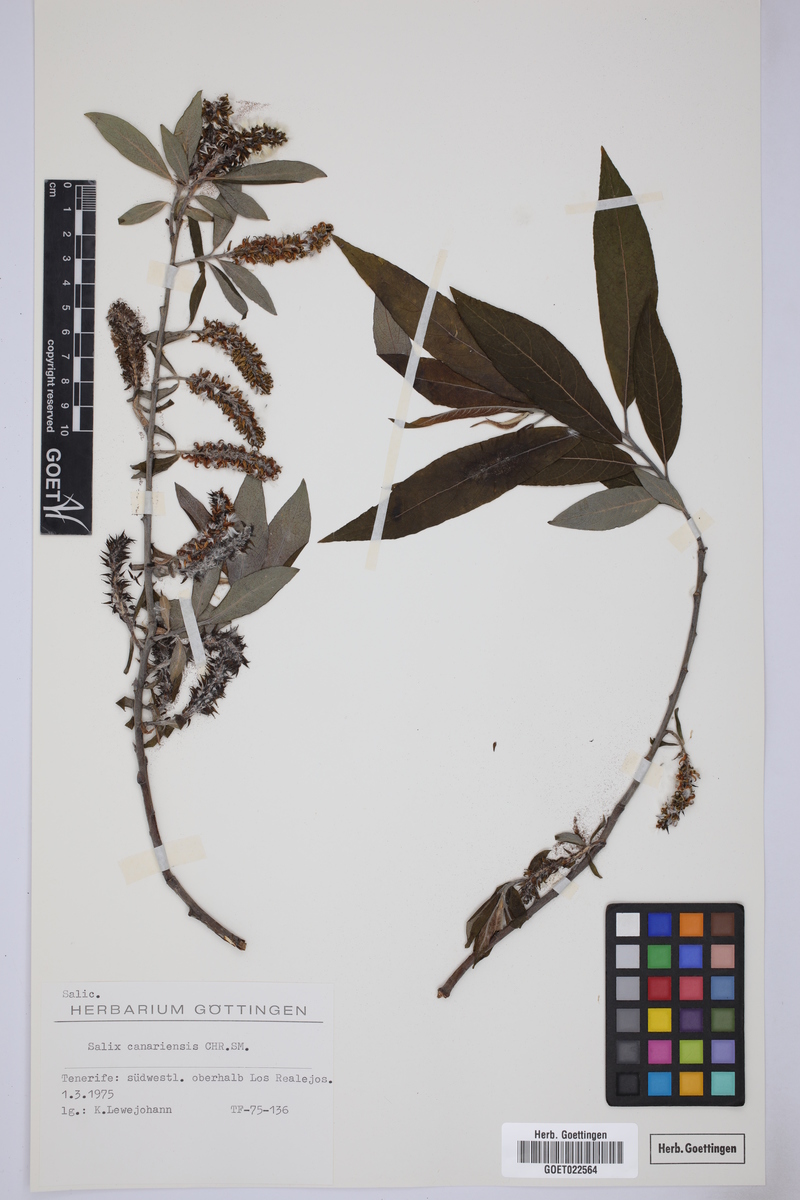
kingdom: Plantae
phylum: Tracheophyta
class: Magnoliopsida
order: Malpighiales
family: Salicaceae
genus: Salix
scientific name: Salix canariensis
